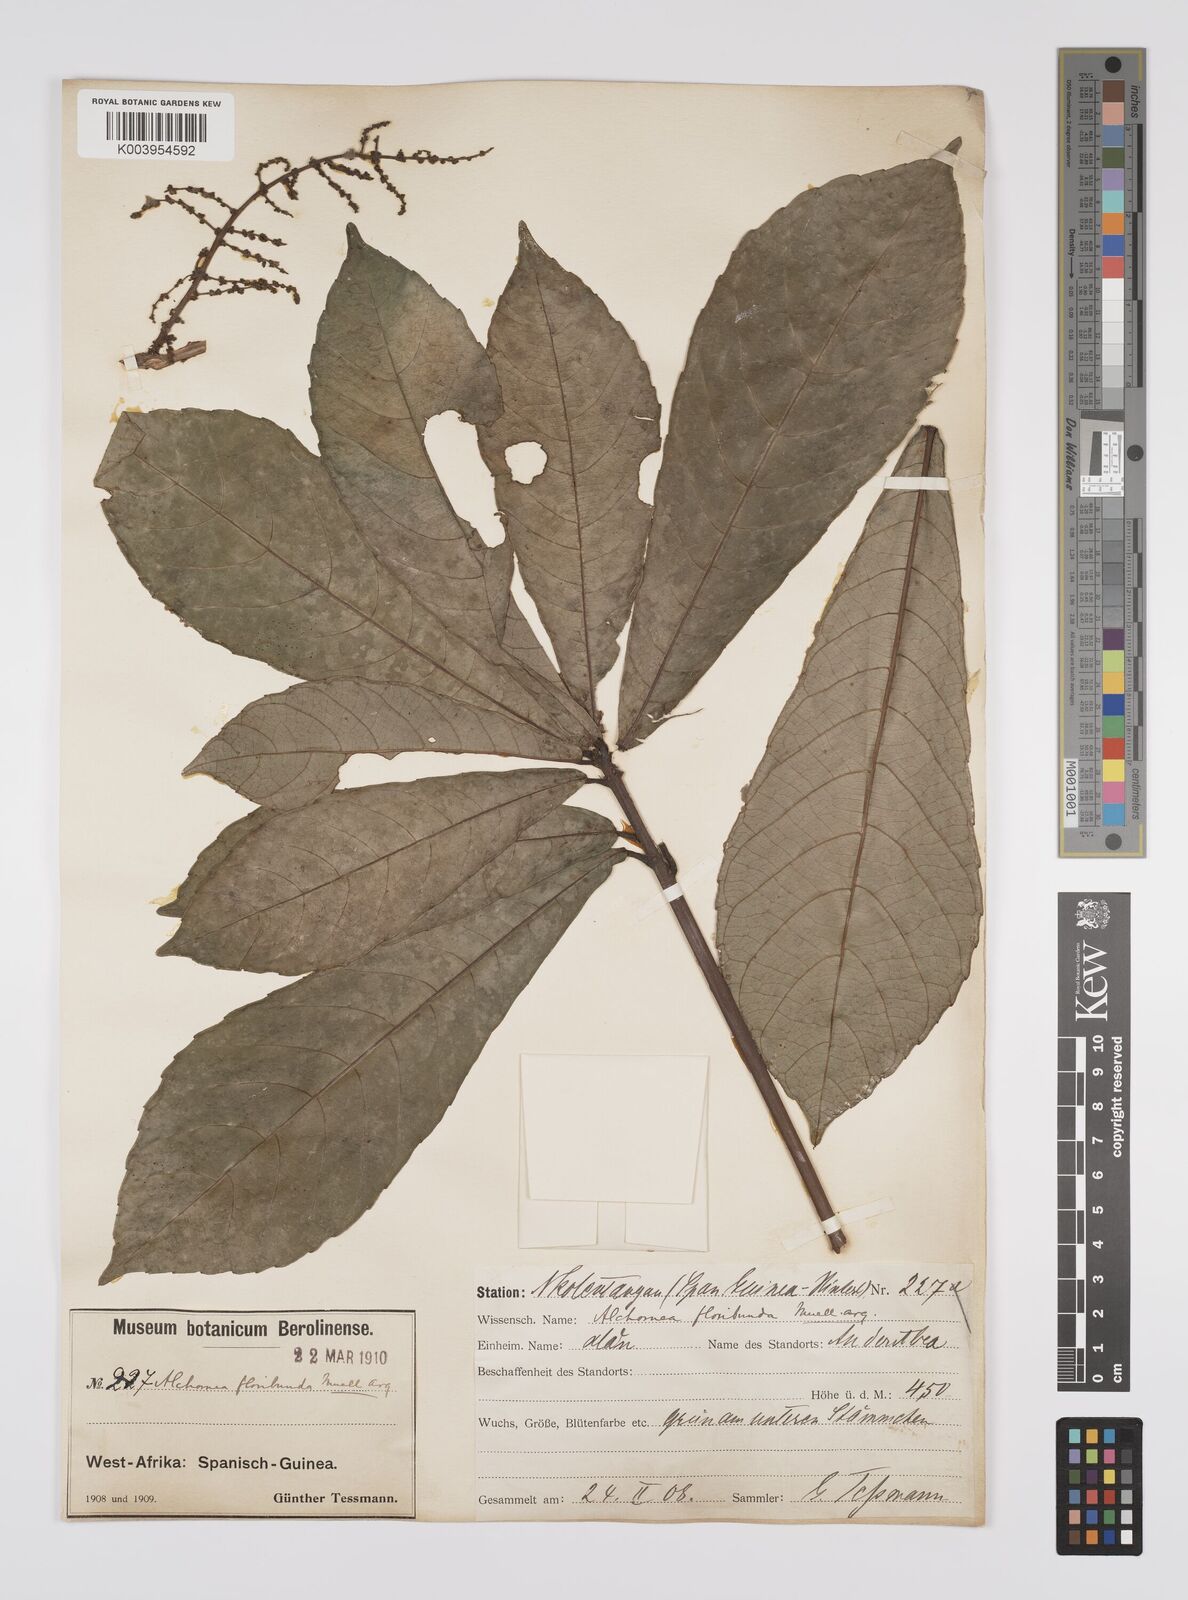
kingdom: Plantae
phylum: Tracheophyta
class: Magnoliopsida
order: Malpighiales
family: Euphorbiaceae
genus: Alchornea
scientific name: Alchornea floribunda
